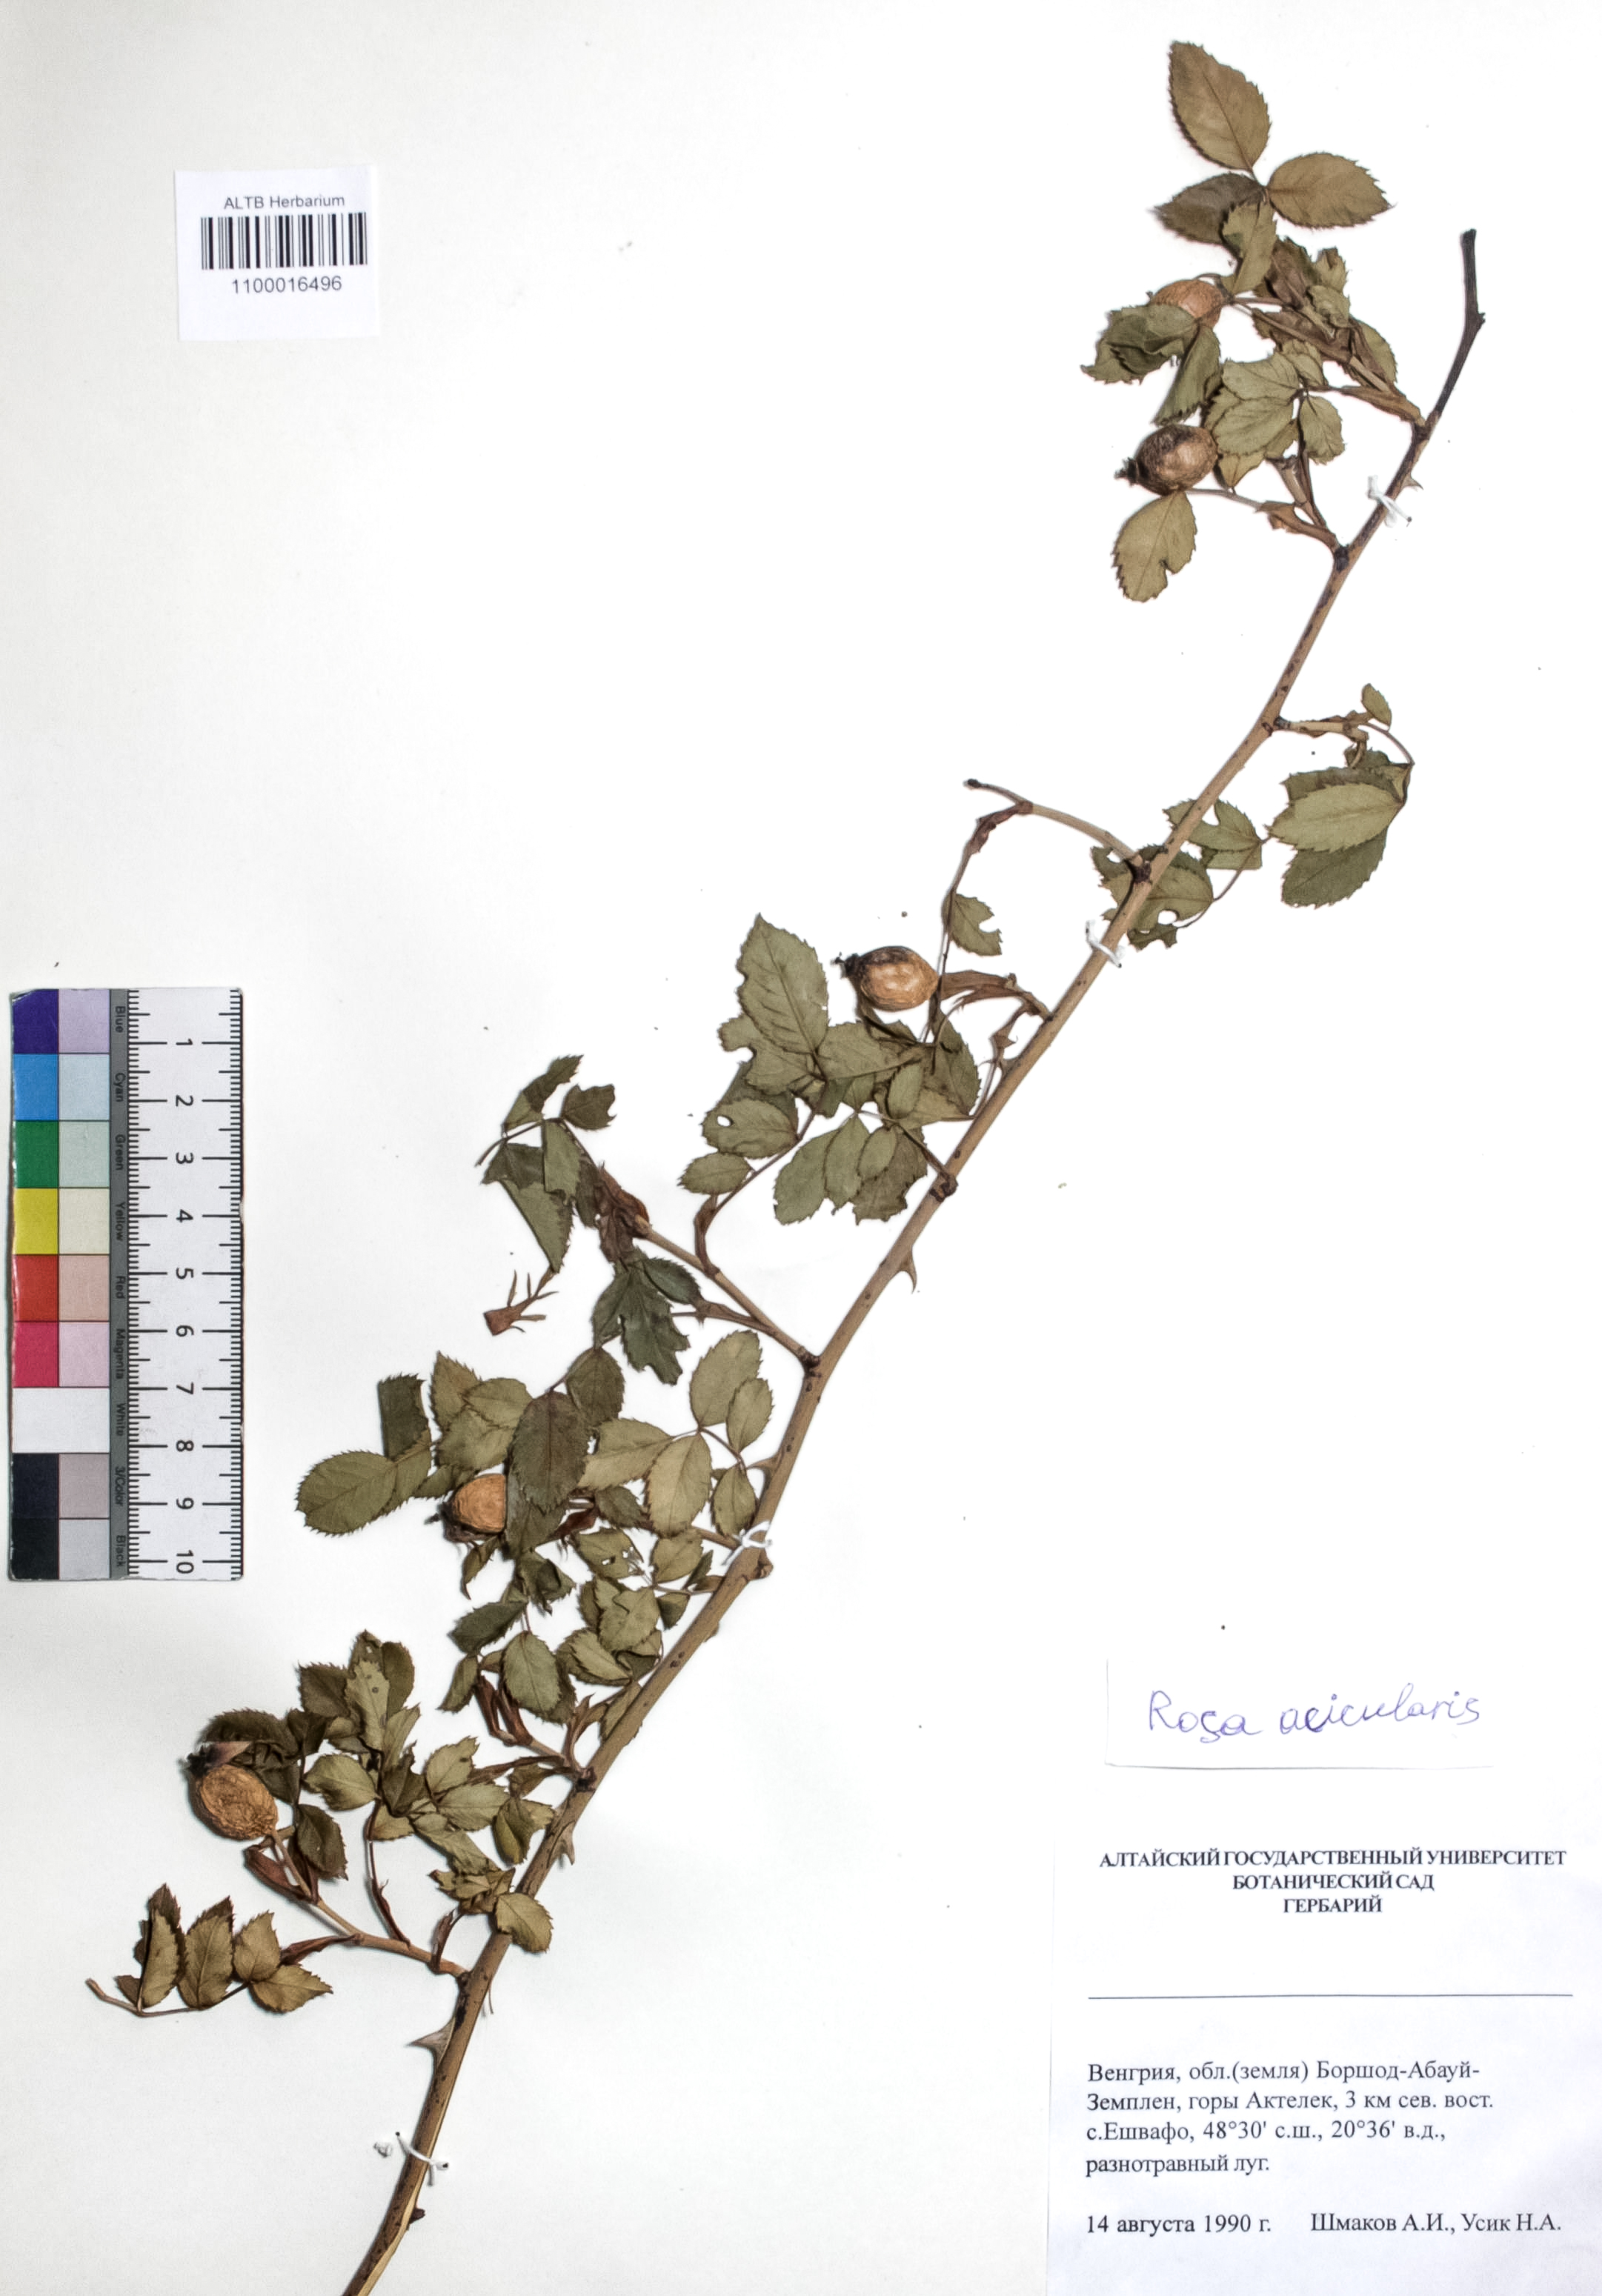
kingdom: Plantae
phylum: Tracheophyta
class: Magnoliopsida
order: Rosales
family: Rosaceae
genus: Rosa
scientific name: Rosa acicularis
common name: Prickly rose
